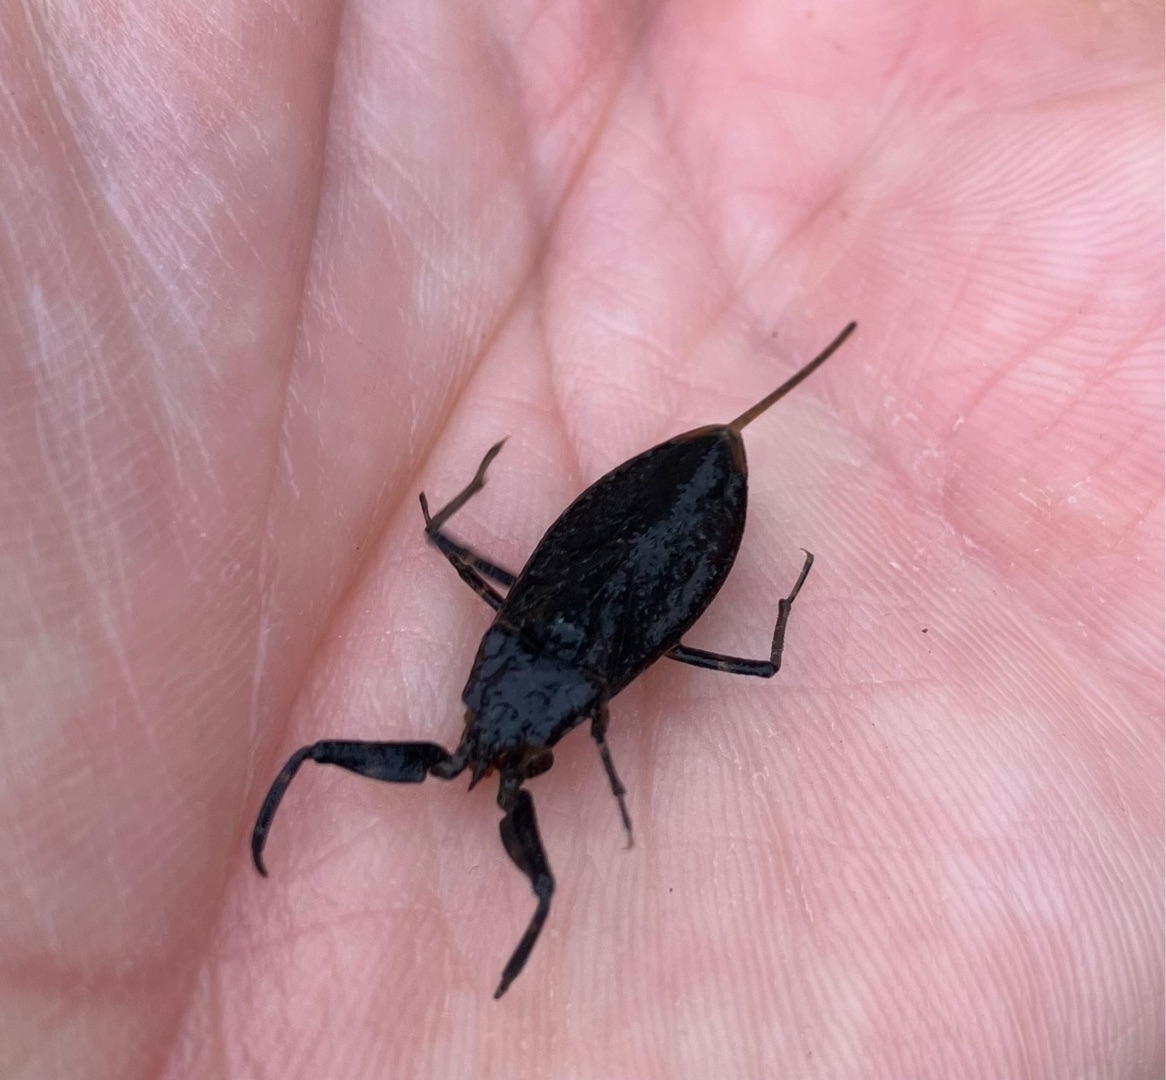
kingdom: Animalia
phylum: Arthropoda
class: Insecta
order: Hemiptera
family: Nepidae
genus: Nepa
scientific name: Nepa cinerea
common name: Skorpiontæge
